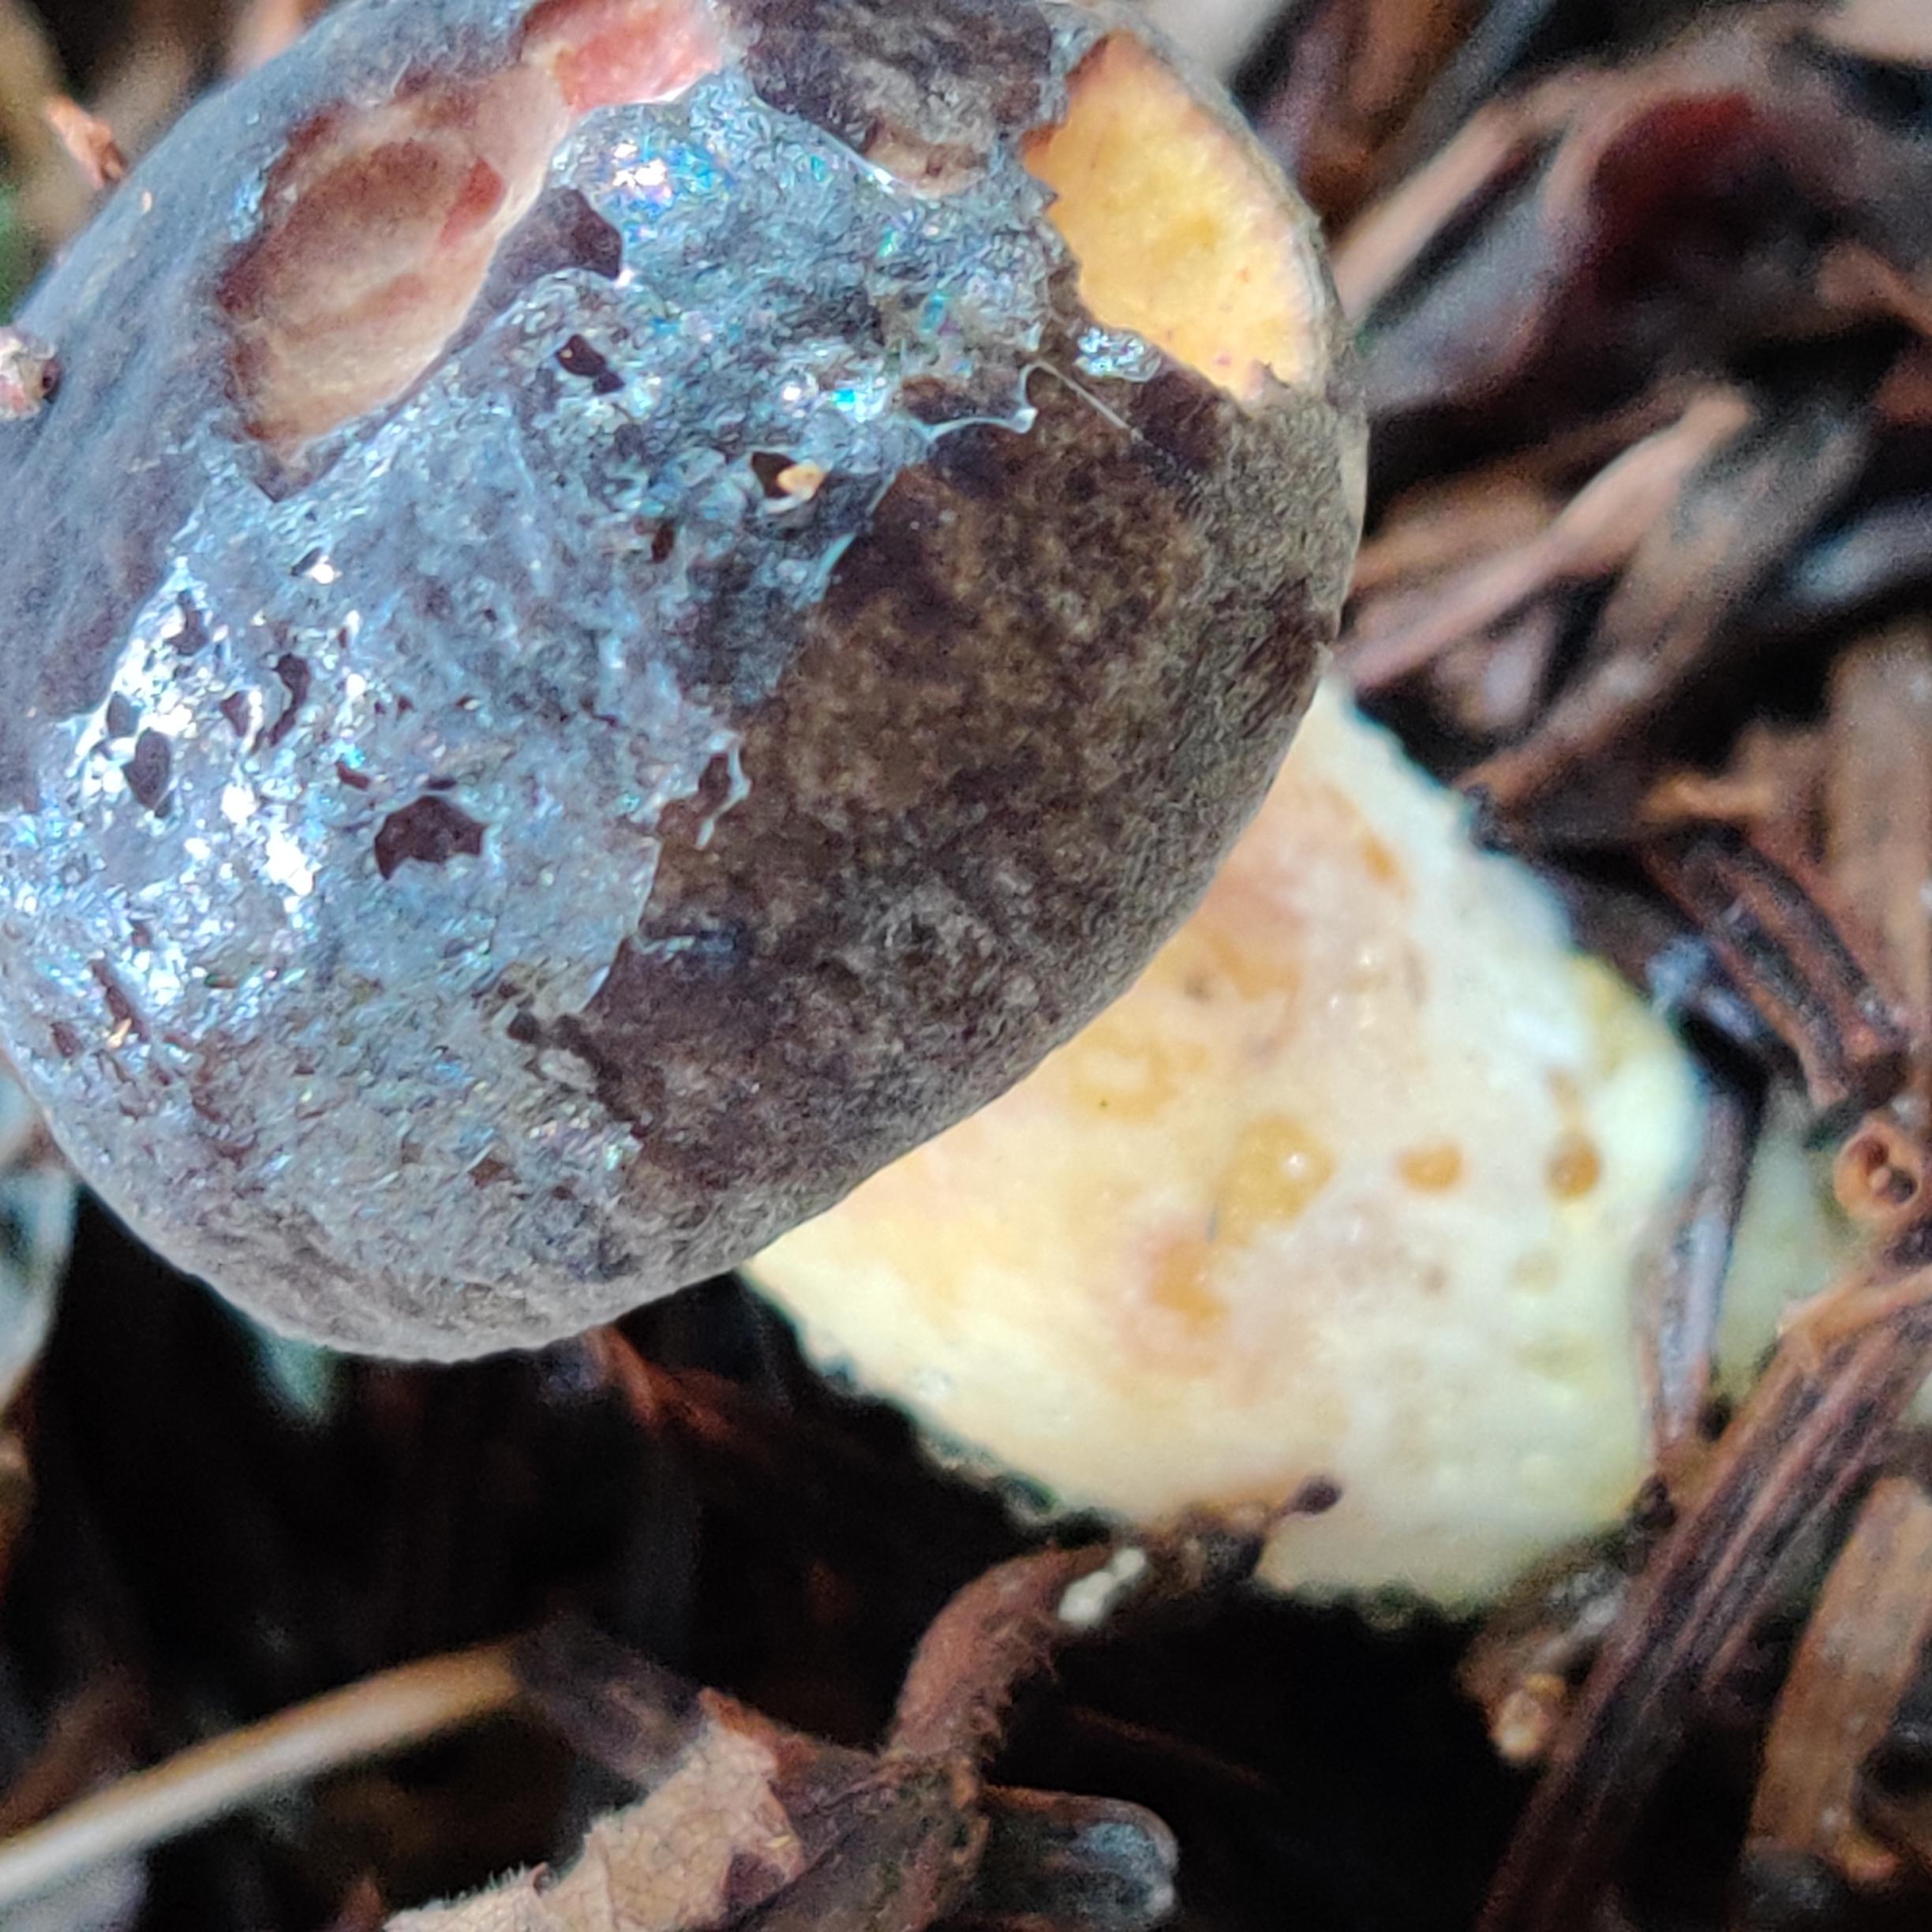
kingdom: Fungi
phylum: Basidiomycota
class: Agaricomycetes
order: Boletales
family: Boletaceae
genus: Xerocomellus
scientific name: Xerocomellus
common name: dværgrørhat
